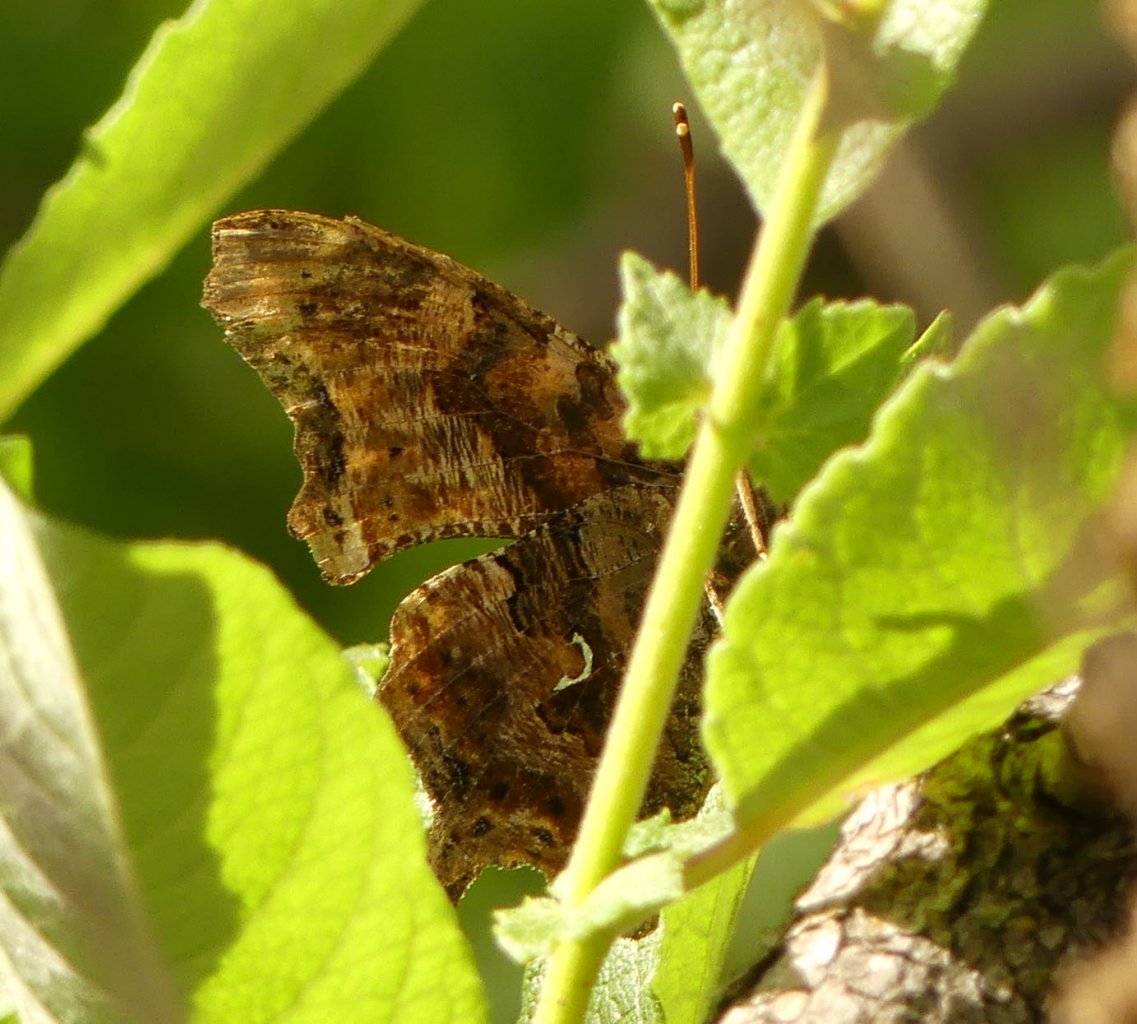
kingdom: Animalia
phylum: Arthropoda
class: Insecta
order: Lepidoptera
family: Nymphalidae
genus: Polygonia
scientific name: Polygonia comma
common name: Eastern Comma
